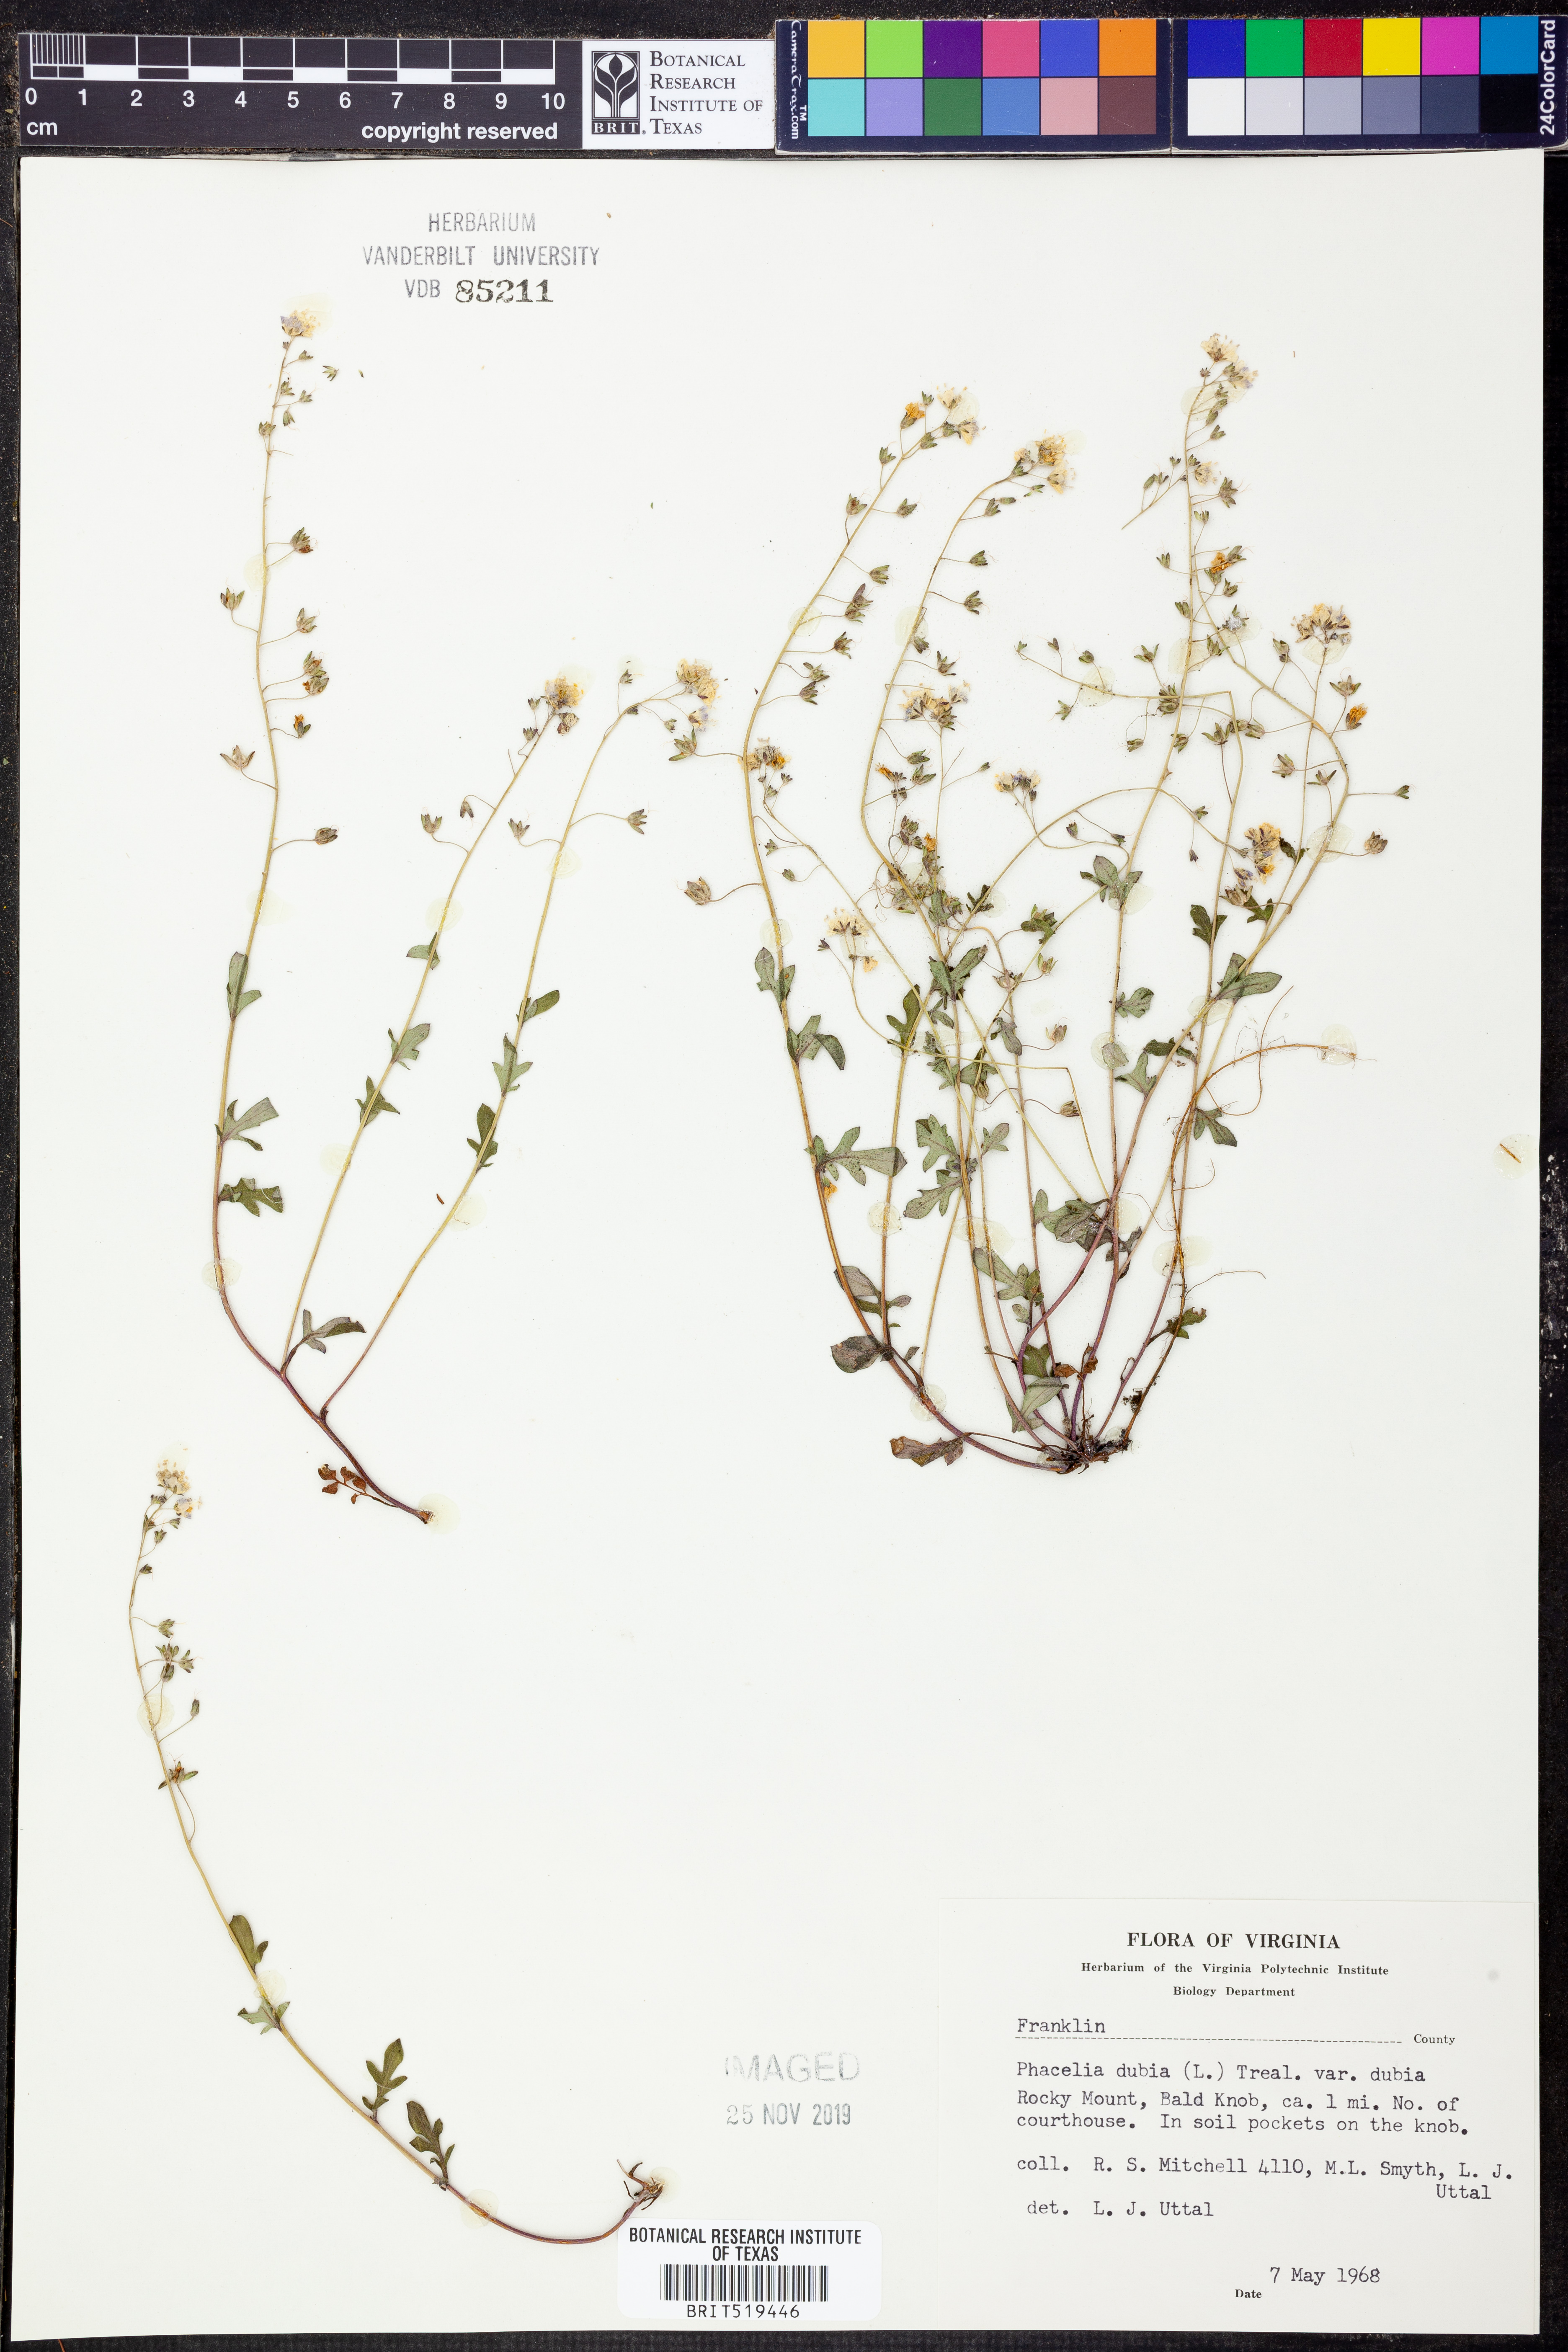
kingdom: Plantae
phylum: Tracheophyta
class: Magnoliopsida
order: Boraginales
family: Hydrophyllaceae
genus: Phacelia
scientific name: Phacelia dubia
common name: Appalachian phacelia
